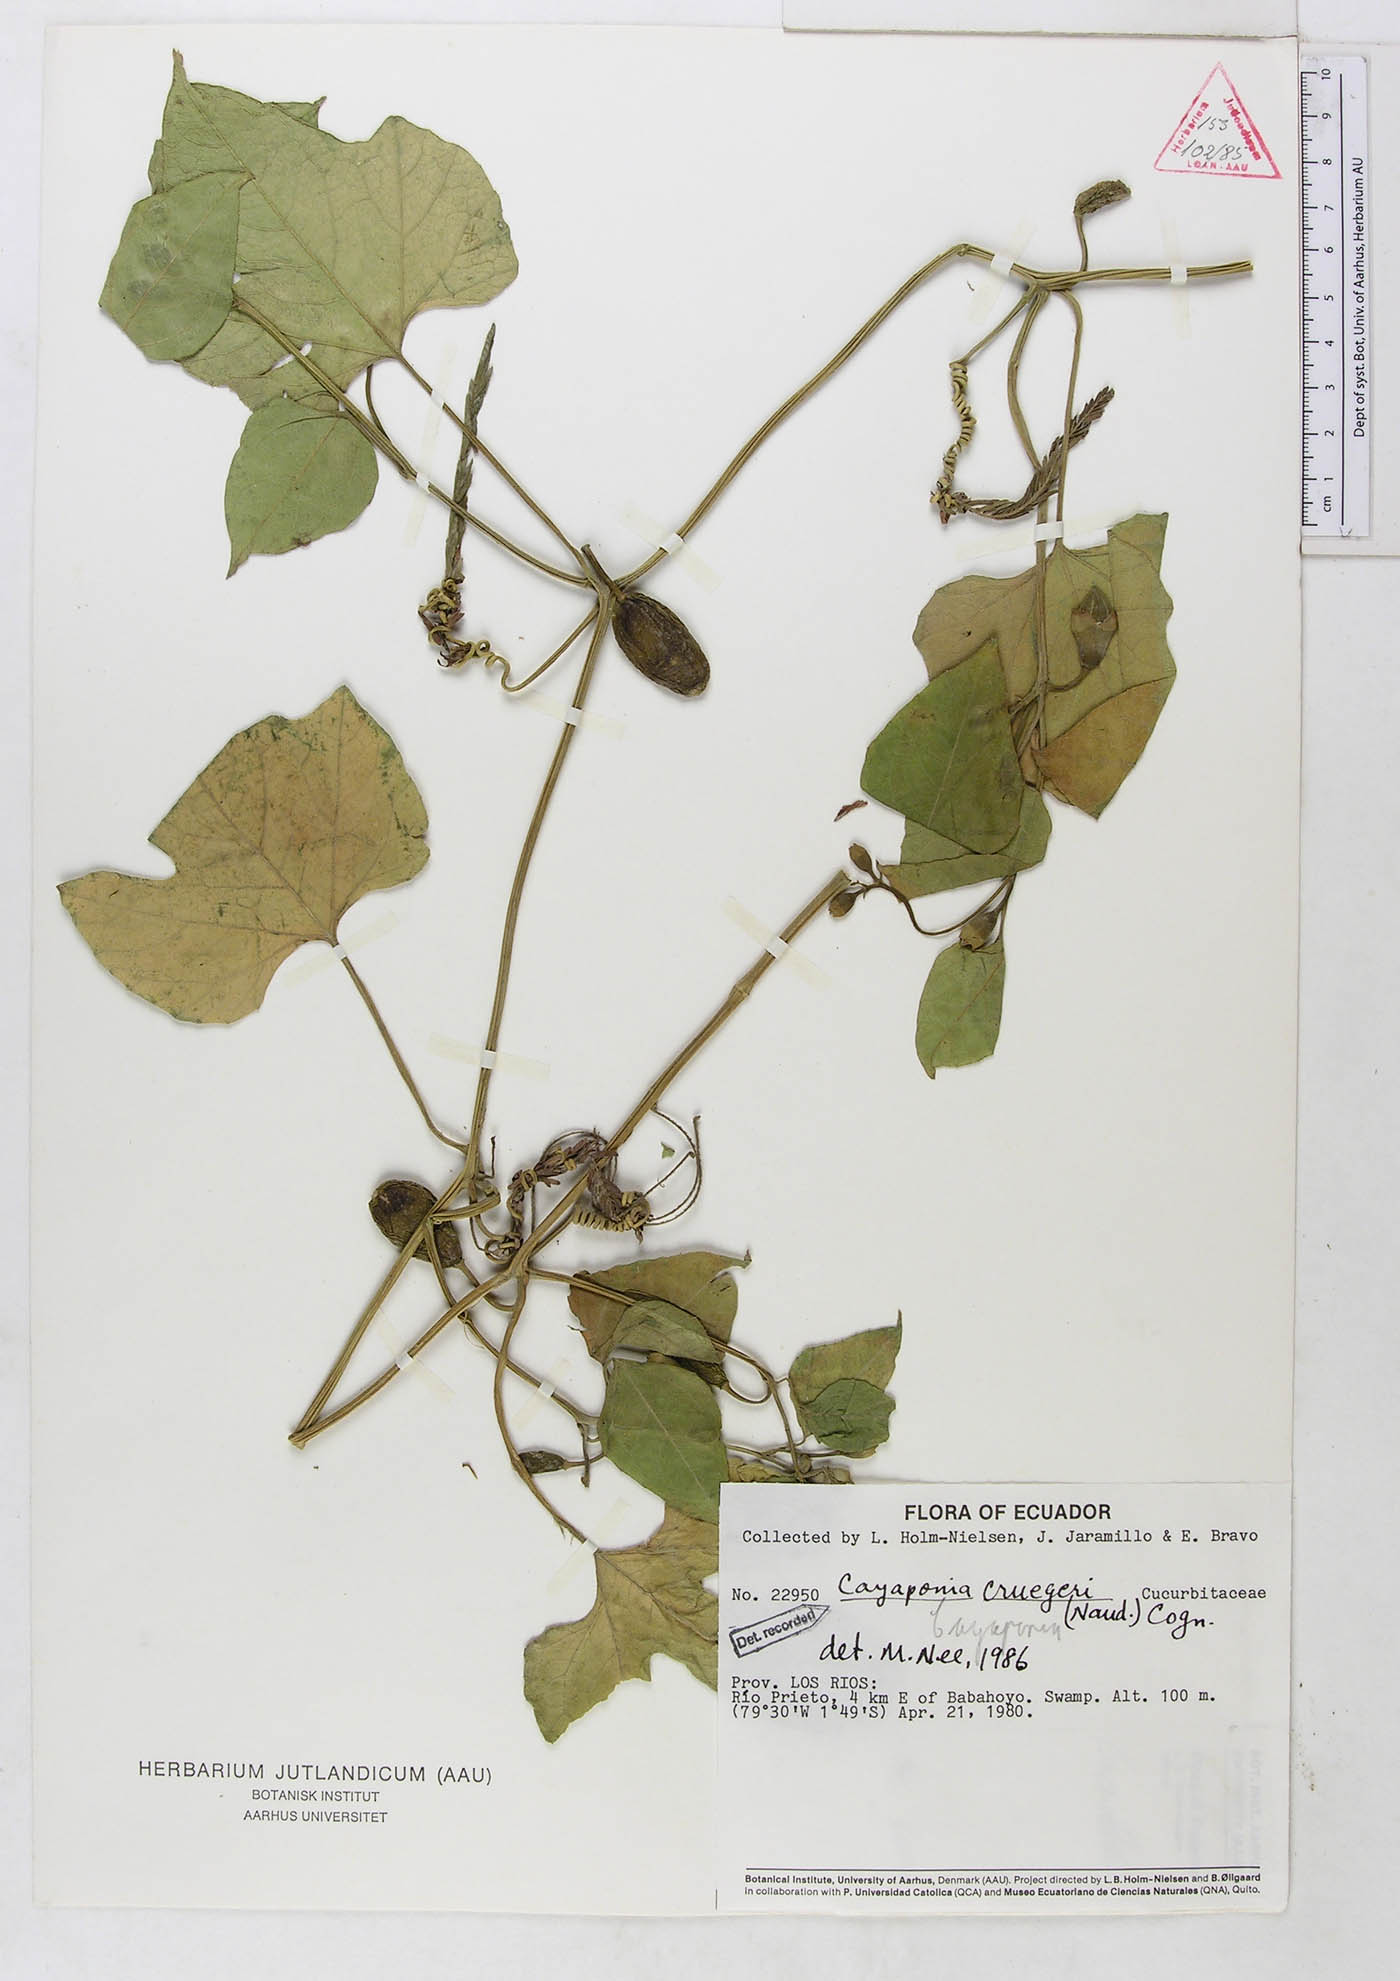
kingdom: Plantae
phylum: Tracheophyta
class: Magnoliopsida
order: Cucurbitales
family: Cucurbitaceae
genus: Cayaponia
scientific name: Cayaponia cruegeri
